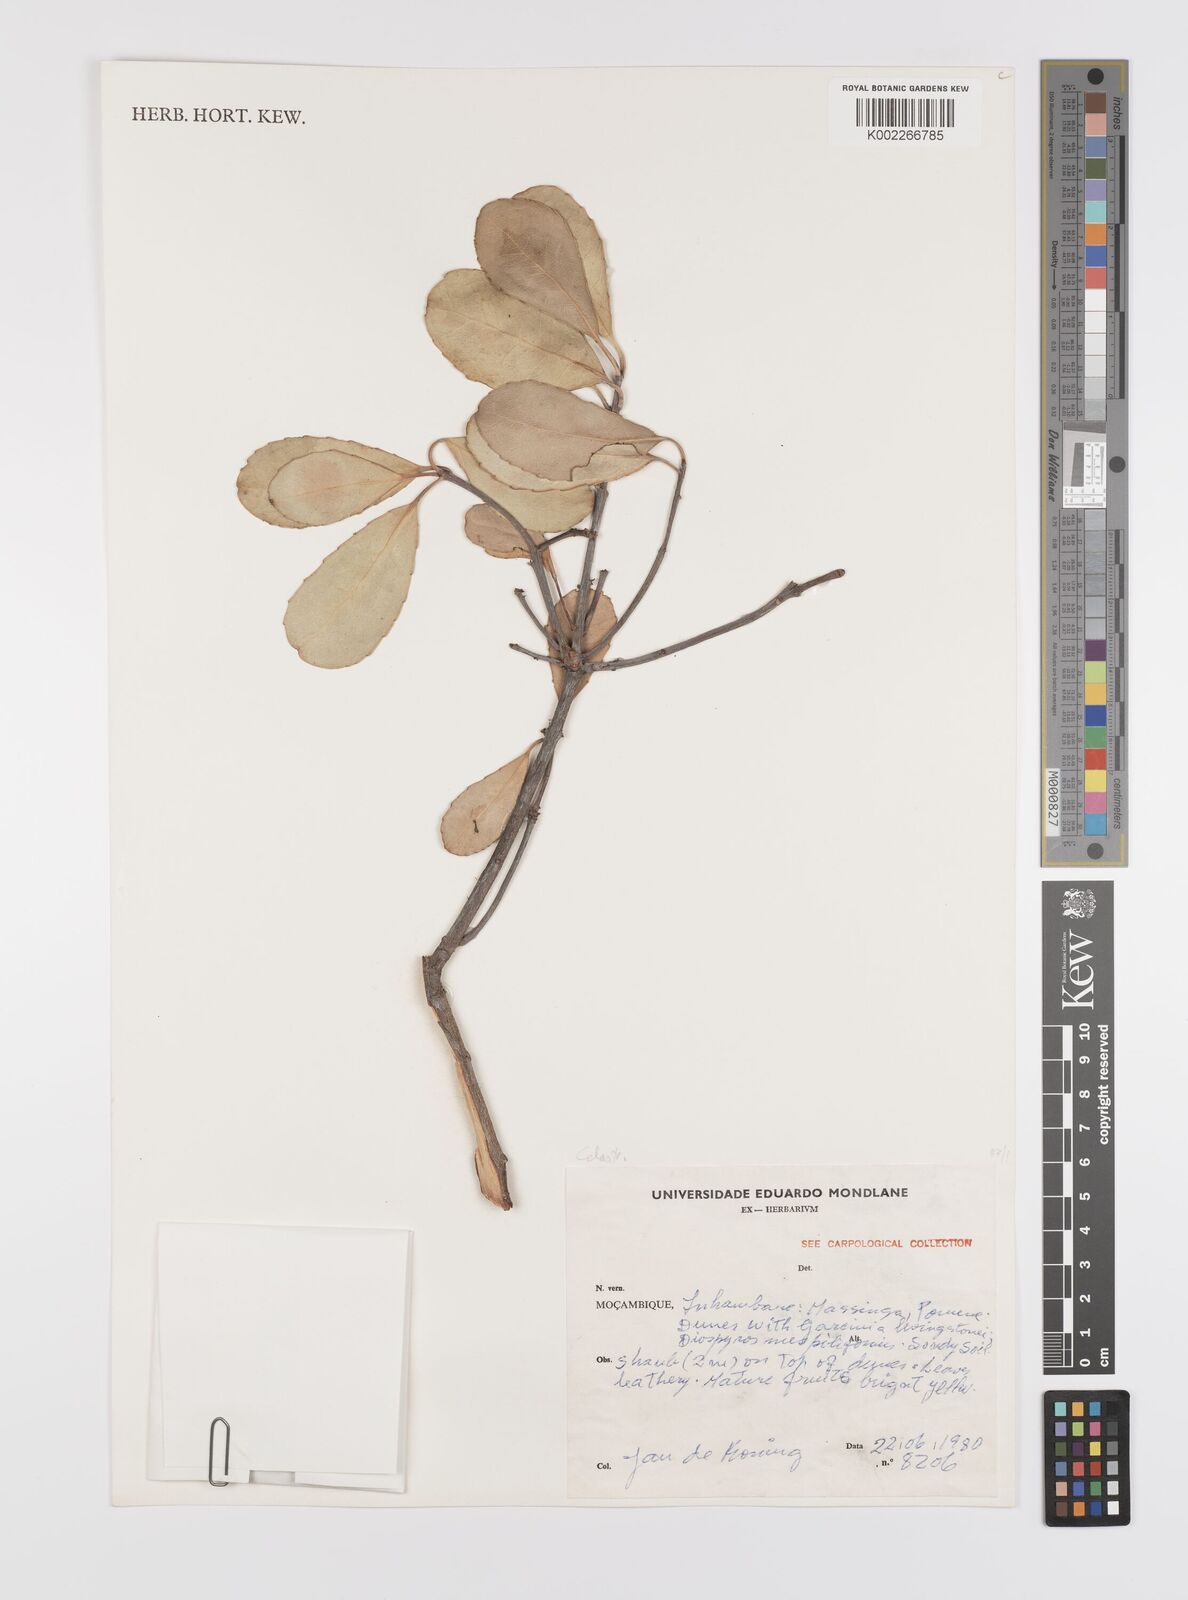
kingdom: Plantae
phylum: Tracheophyta
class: Magnoliopsida
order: Celastrales
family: Celastraceae
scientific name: Celastraceae
